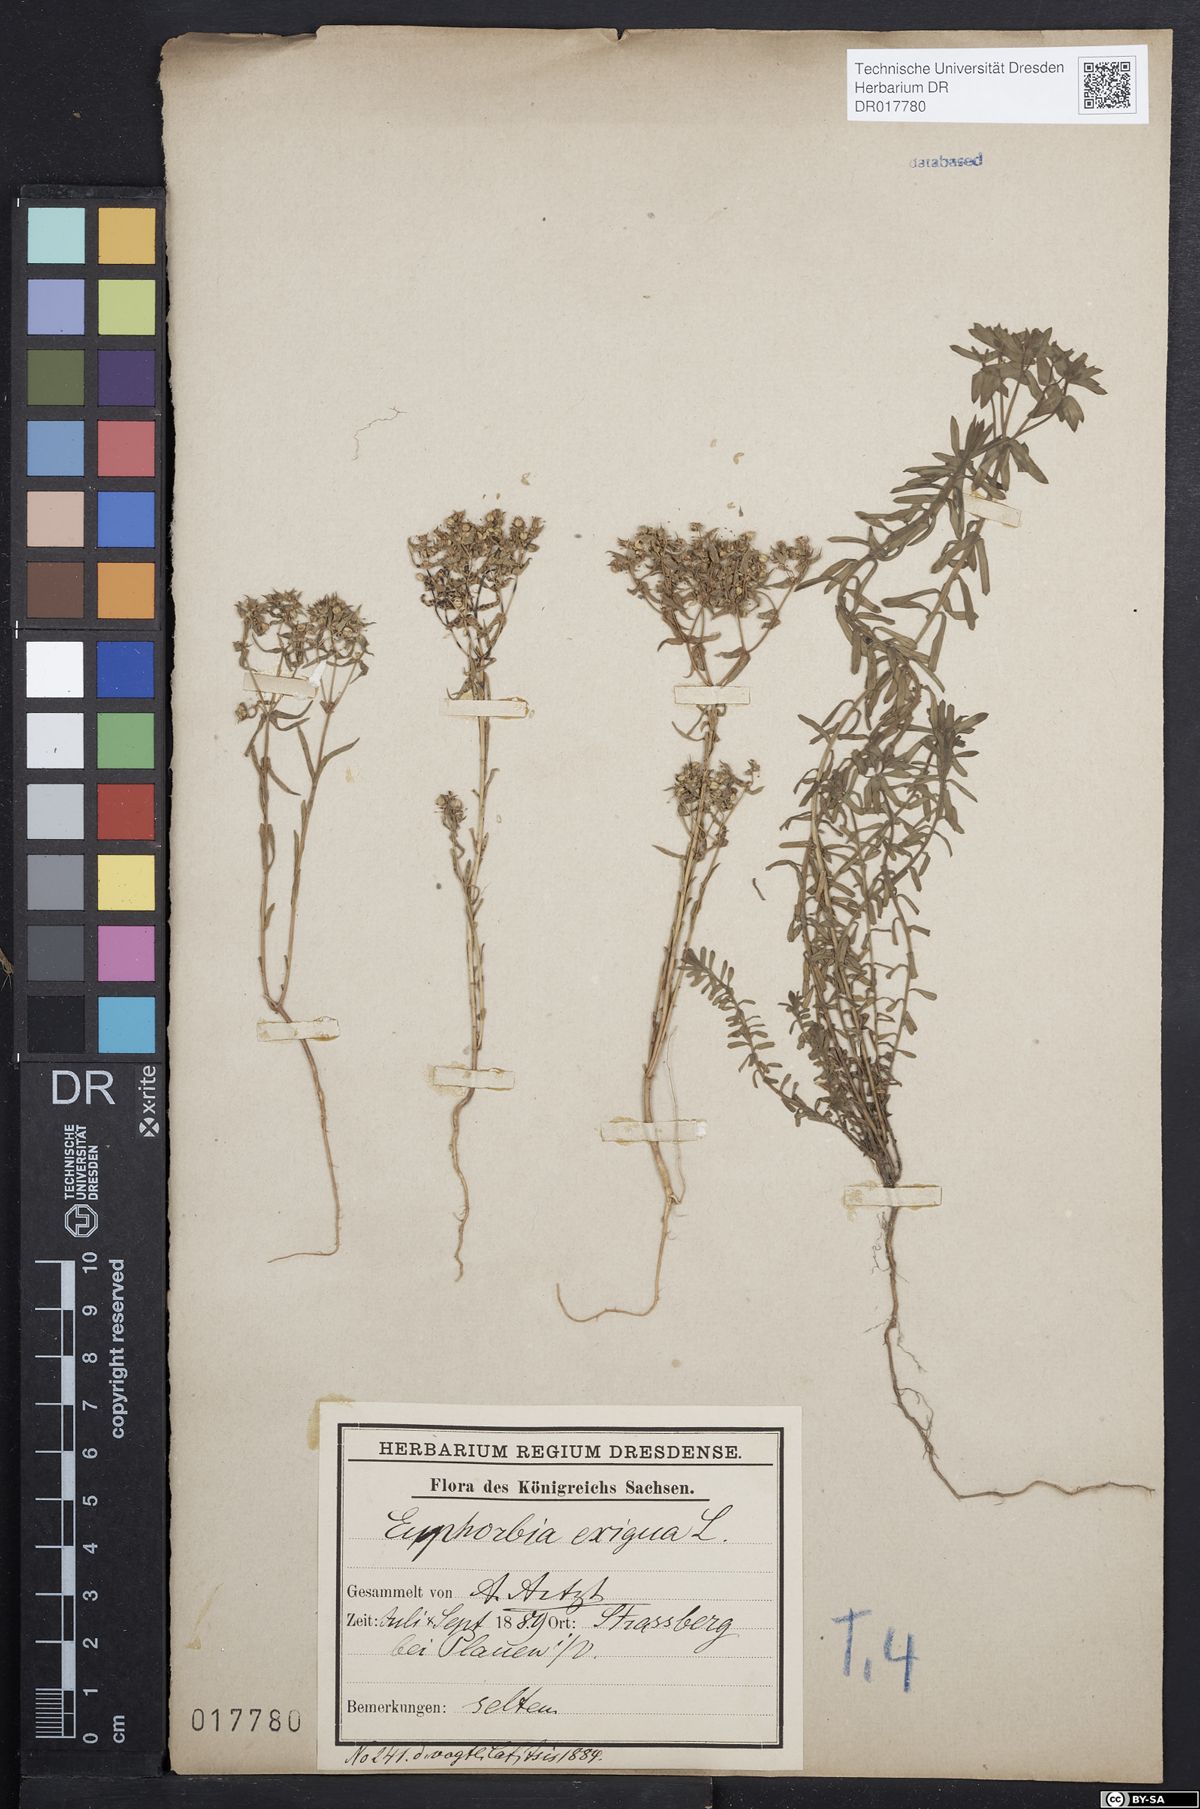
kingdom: Plantae
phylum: Tracheophyta
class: Magnoliopsida
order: Malpighiales
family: Euphorbiaceae
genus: Euphorbia
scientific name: Euphorbia exigua
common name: Dwarf spurge
